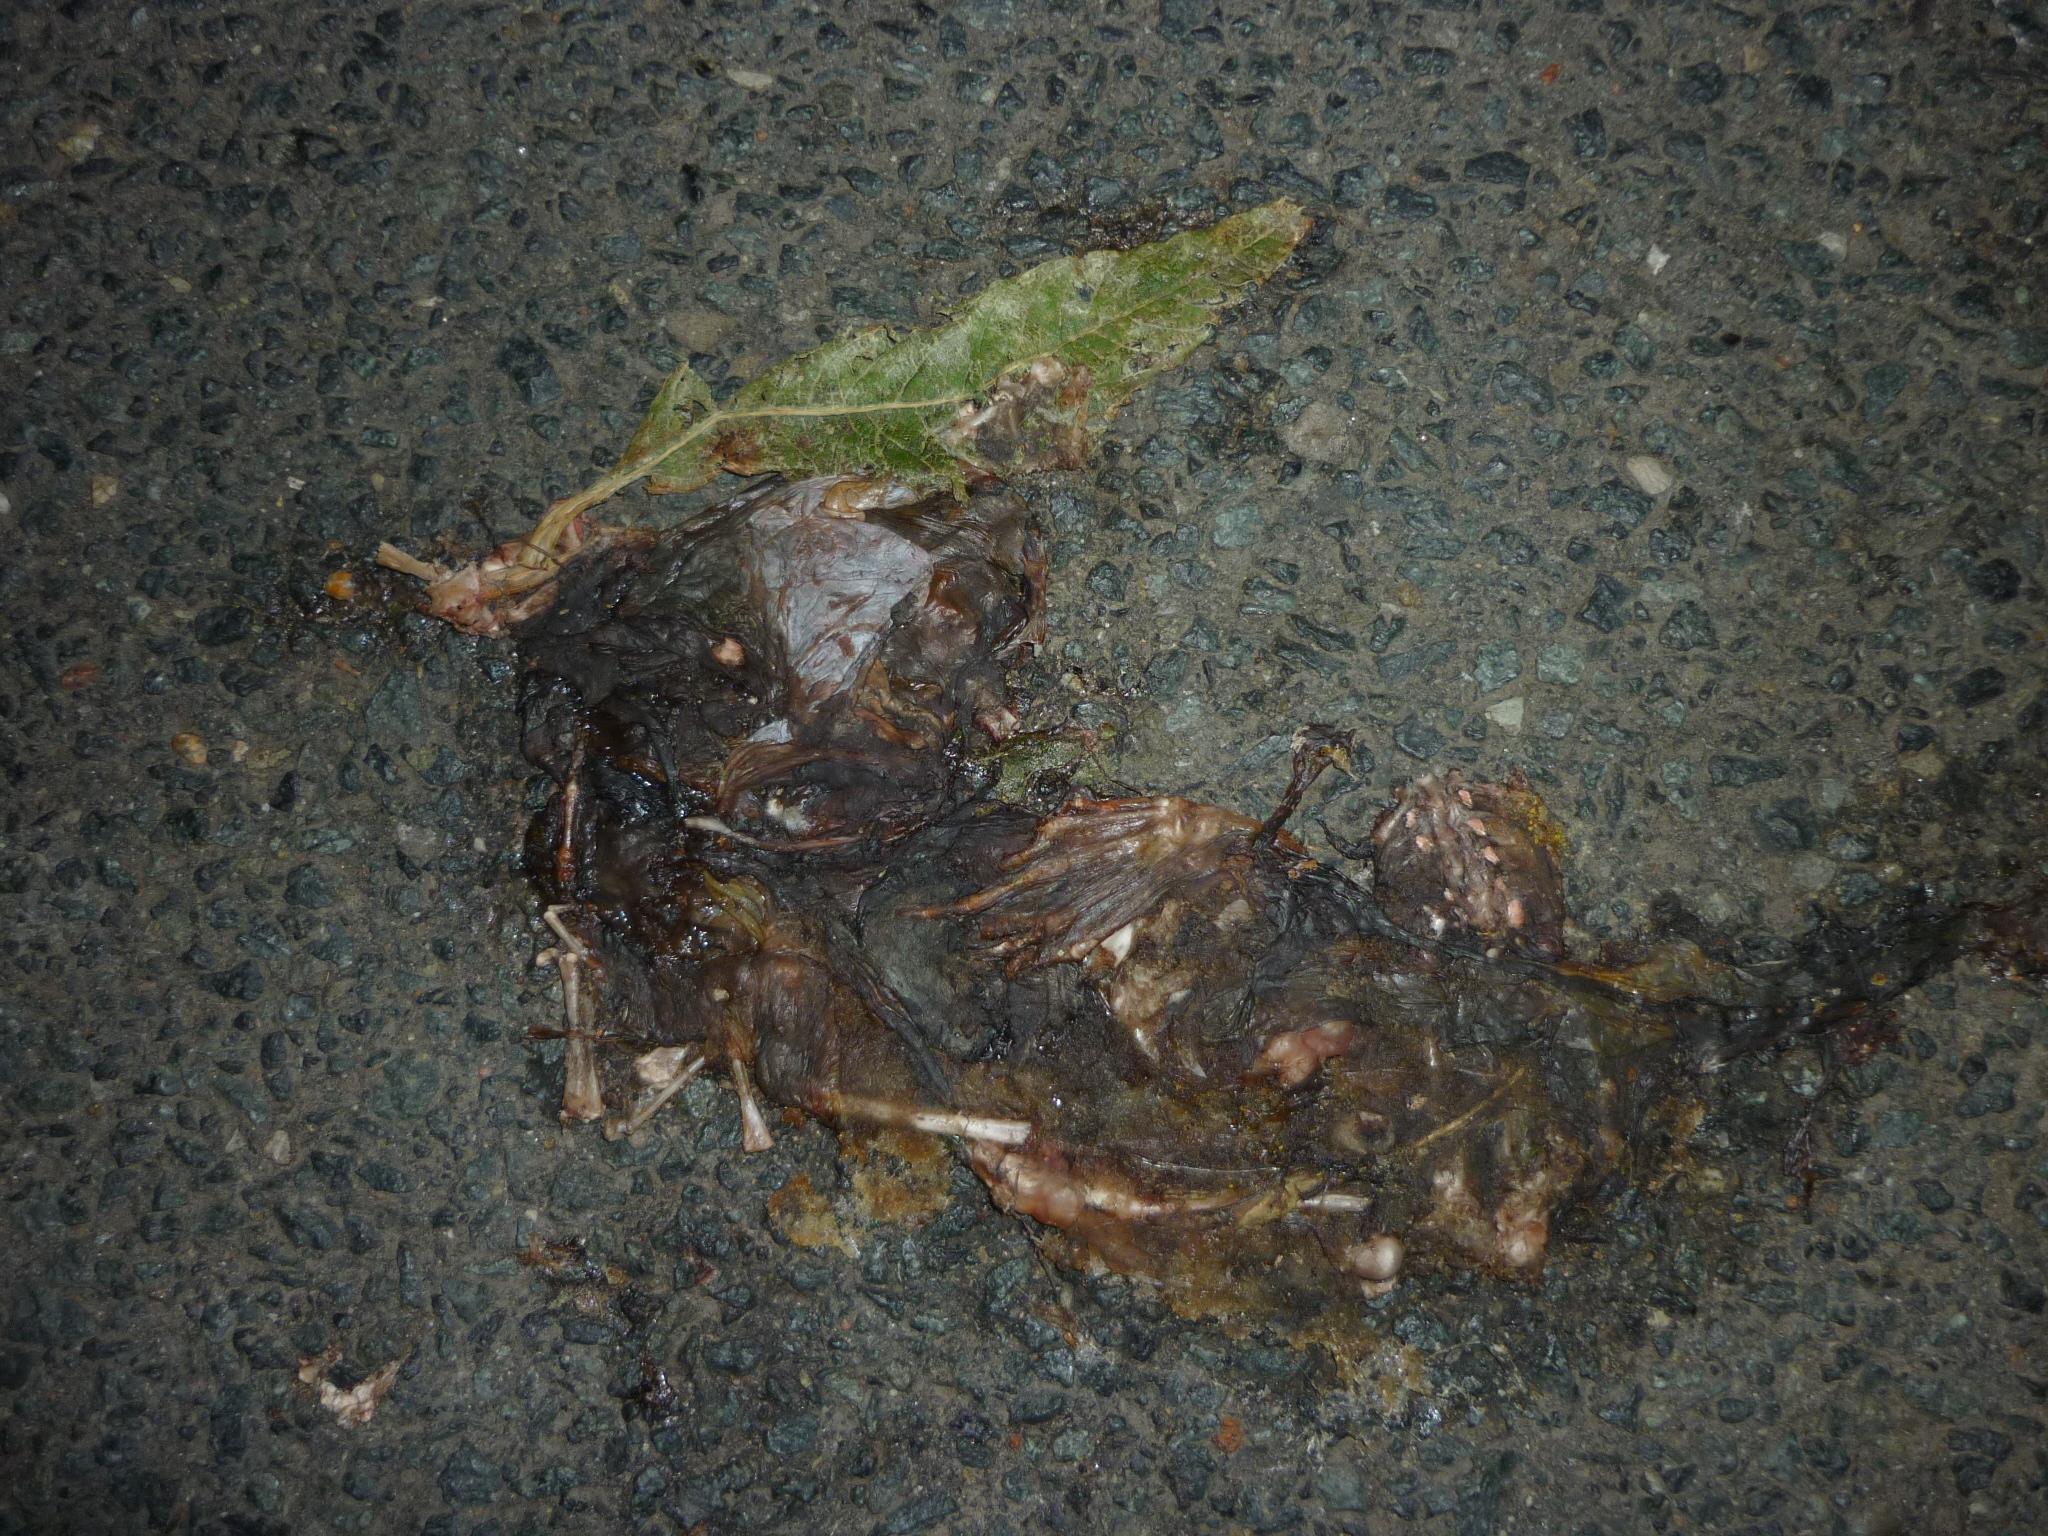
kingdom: Animalia
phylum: Chordata
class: Amphibia
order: Anura
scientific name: Anura
